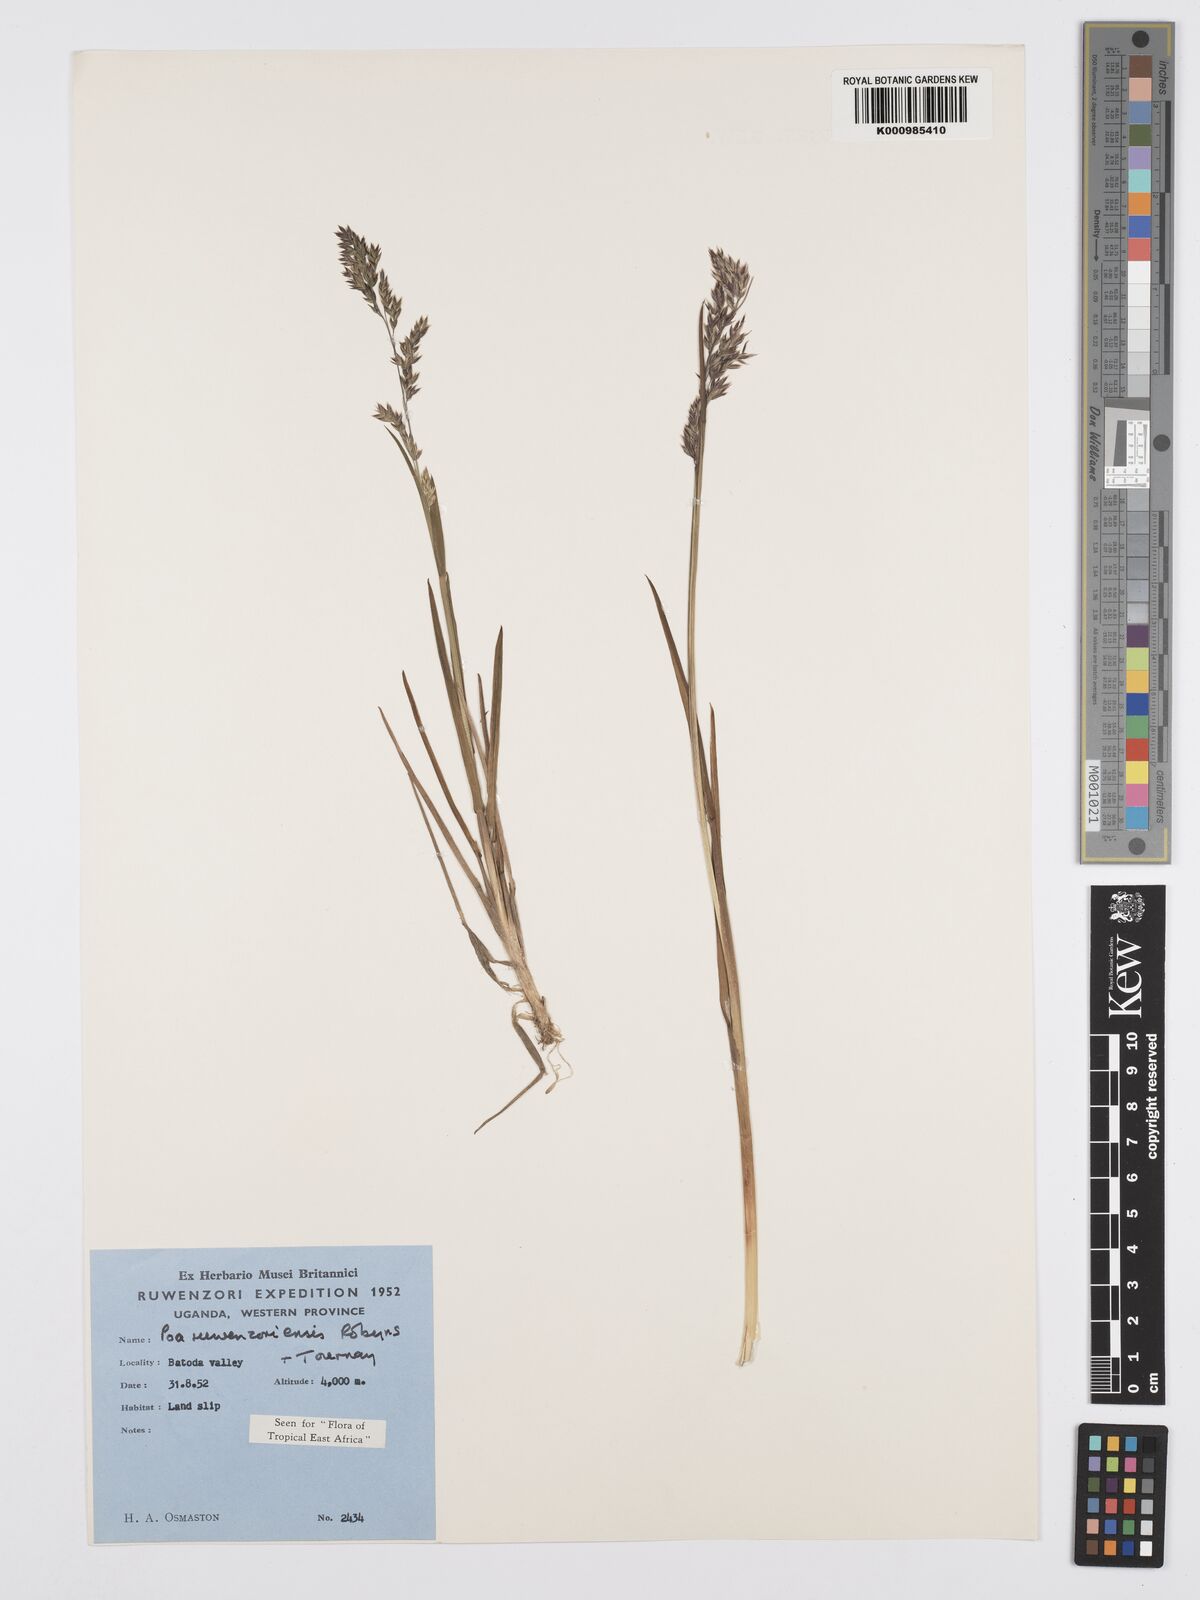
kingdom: Plantae
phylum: Tracheophyta
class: Liliopsida
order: Poales
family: Poaceae
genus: Poa
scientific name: Poa ruwenzoriensis
